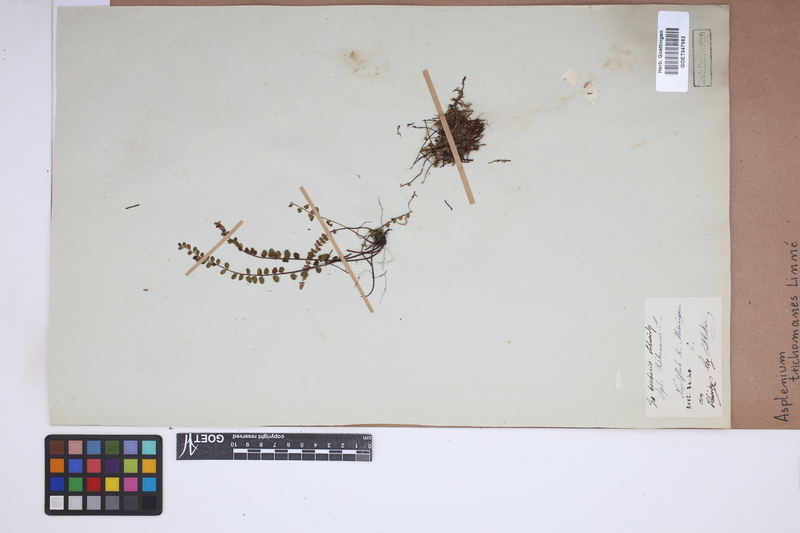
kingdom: Plantae
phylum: Tracheophyta
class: Polypodiopsida
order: Polypodiales
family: Aspleniaceae
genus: Asplenium
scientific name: Asplenium trichomanes
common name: Maidenhair spleenwort
